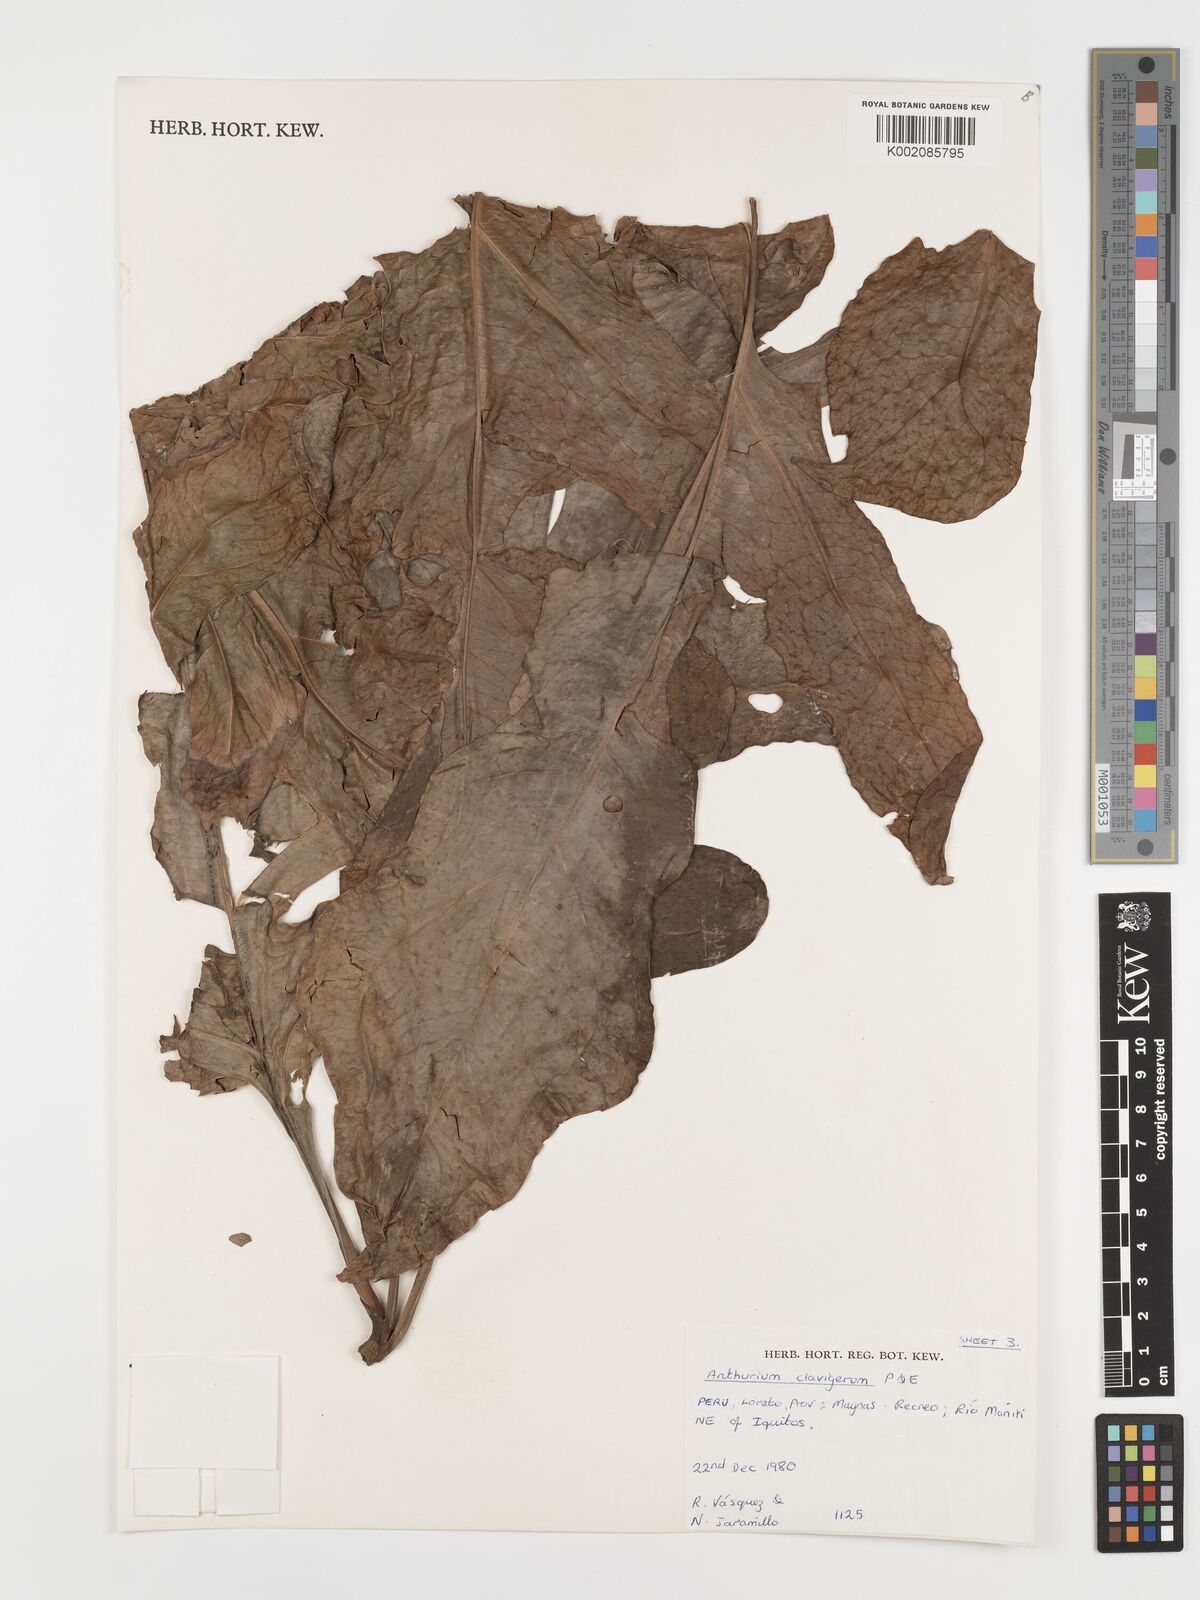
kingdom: Plantae
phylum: Tracheophyta
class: Liliopsida
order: Alismatales
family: Araceae
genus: Anthurium
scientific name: Anthurium clavigerum
